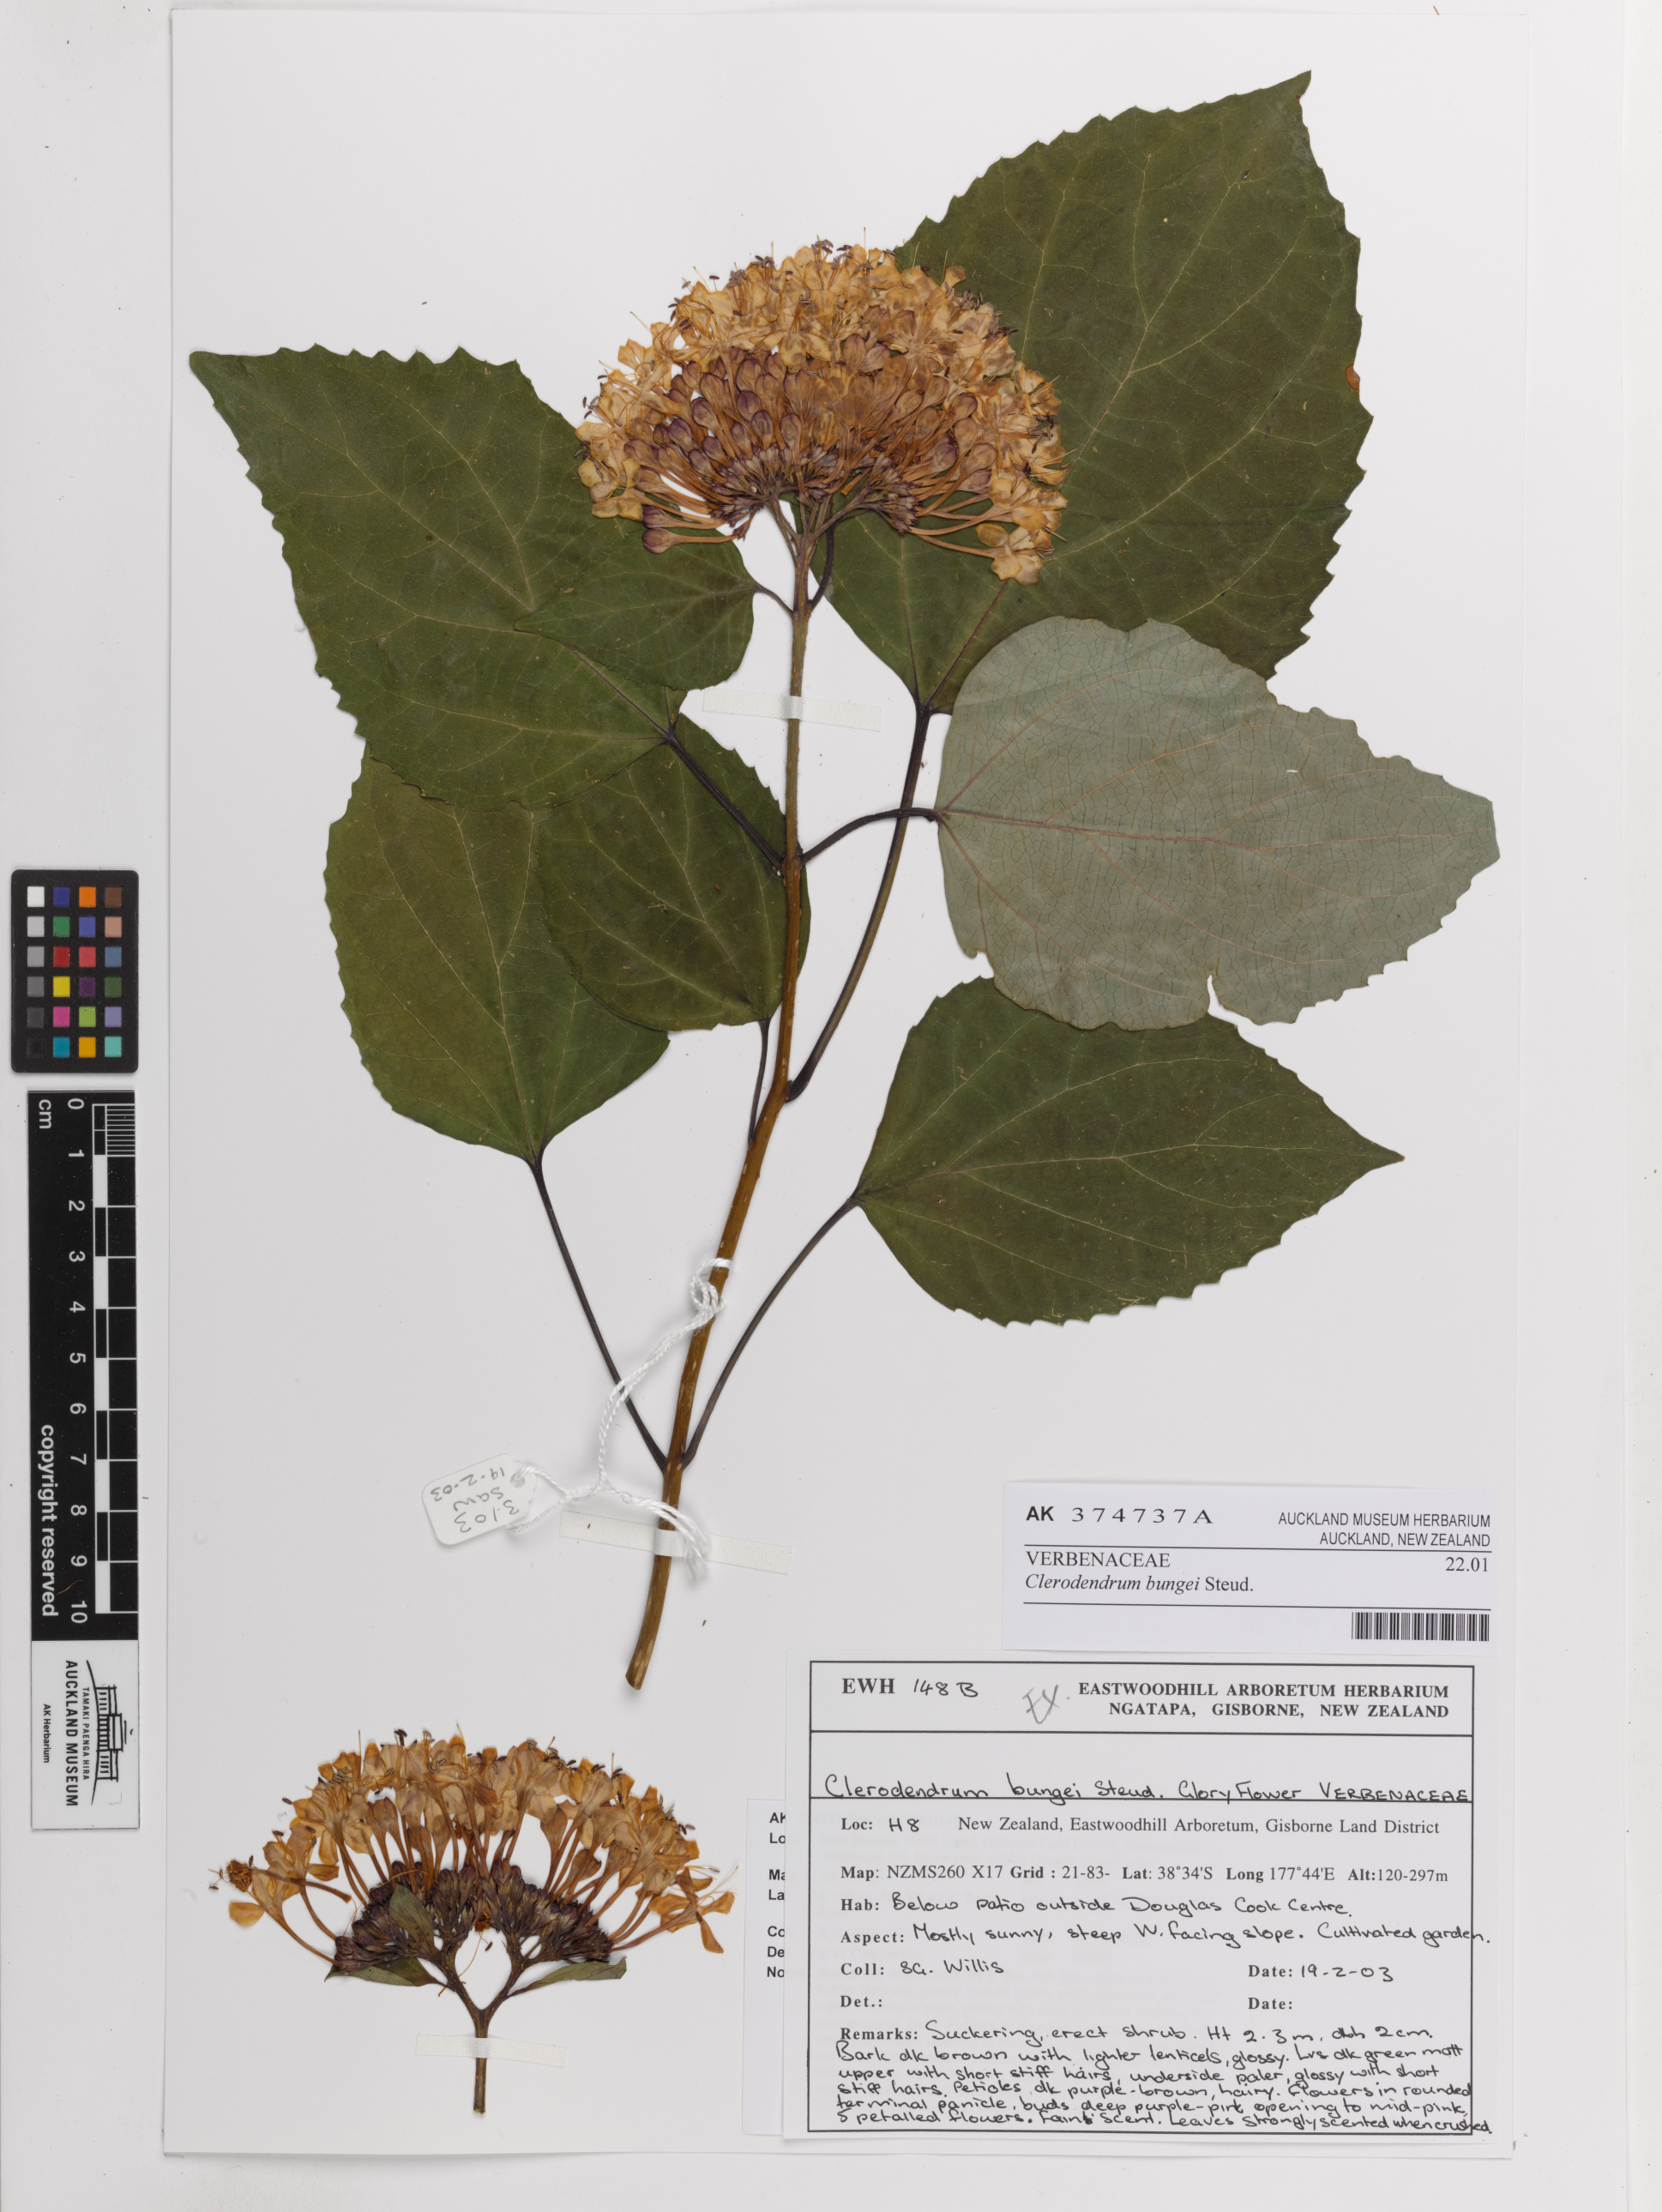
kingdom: Plantae
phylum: Tracheophyta
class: Magnoliopsida
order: Lamiales
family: Lamiaceae
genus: Clerodendrum
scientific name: Clerodendrum bungei
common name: Rose glorybower
